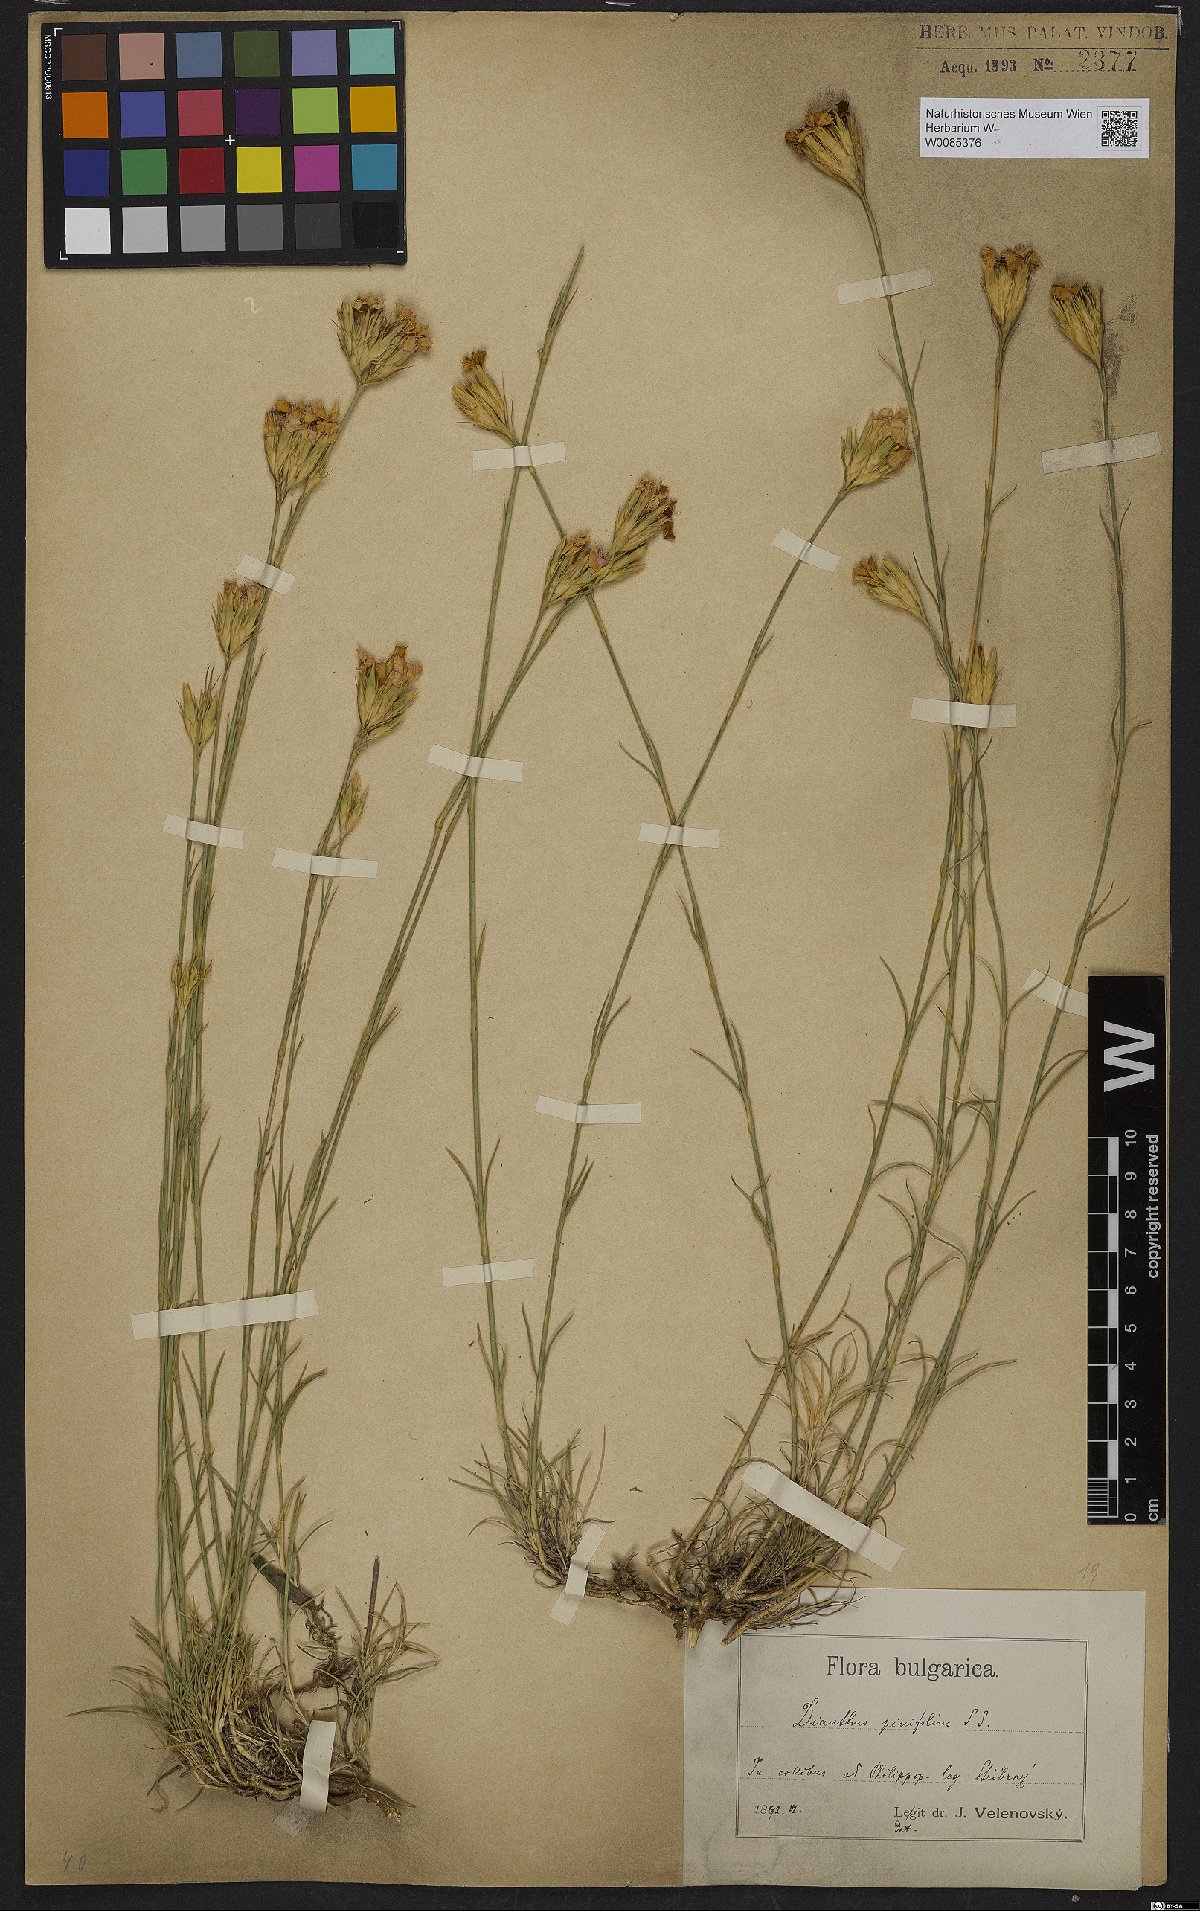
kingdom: Plantae
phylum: Tracheophyta
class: Magnoliopsida
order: Caryophyllales
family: Caryophyllaceae
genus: Dianthus
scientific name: Dianthus pinifolius
